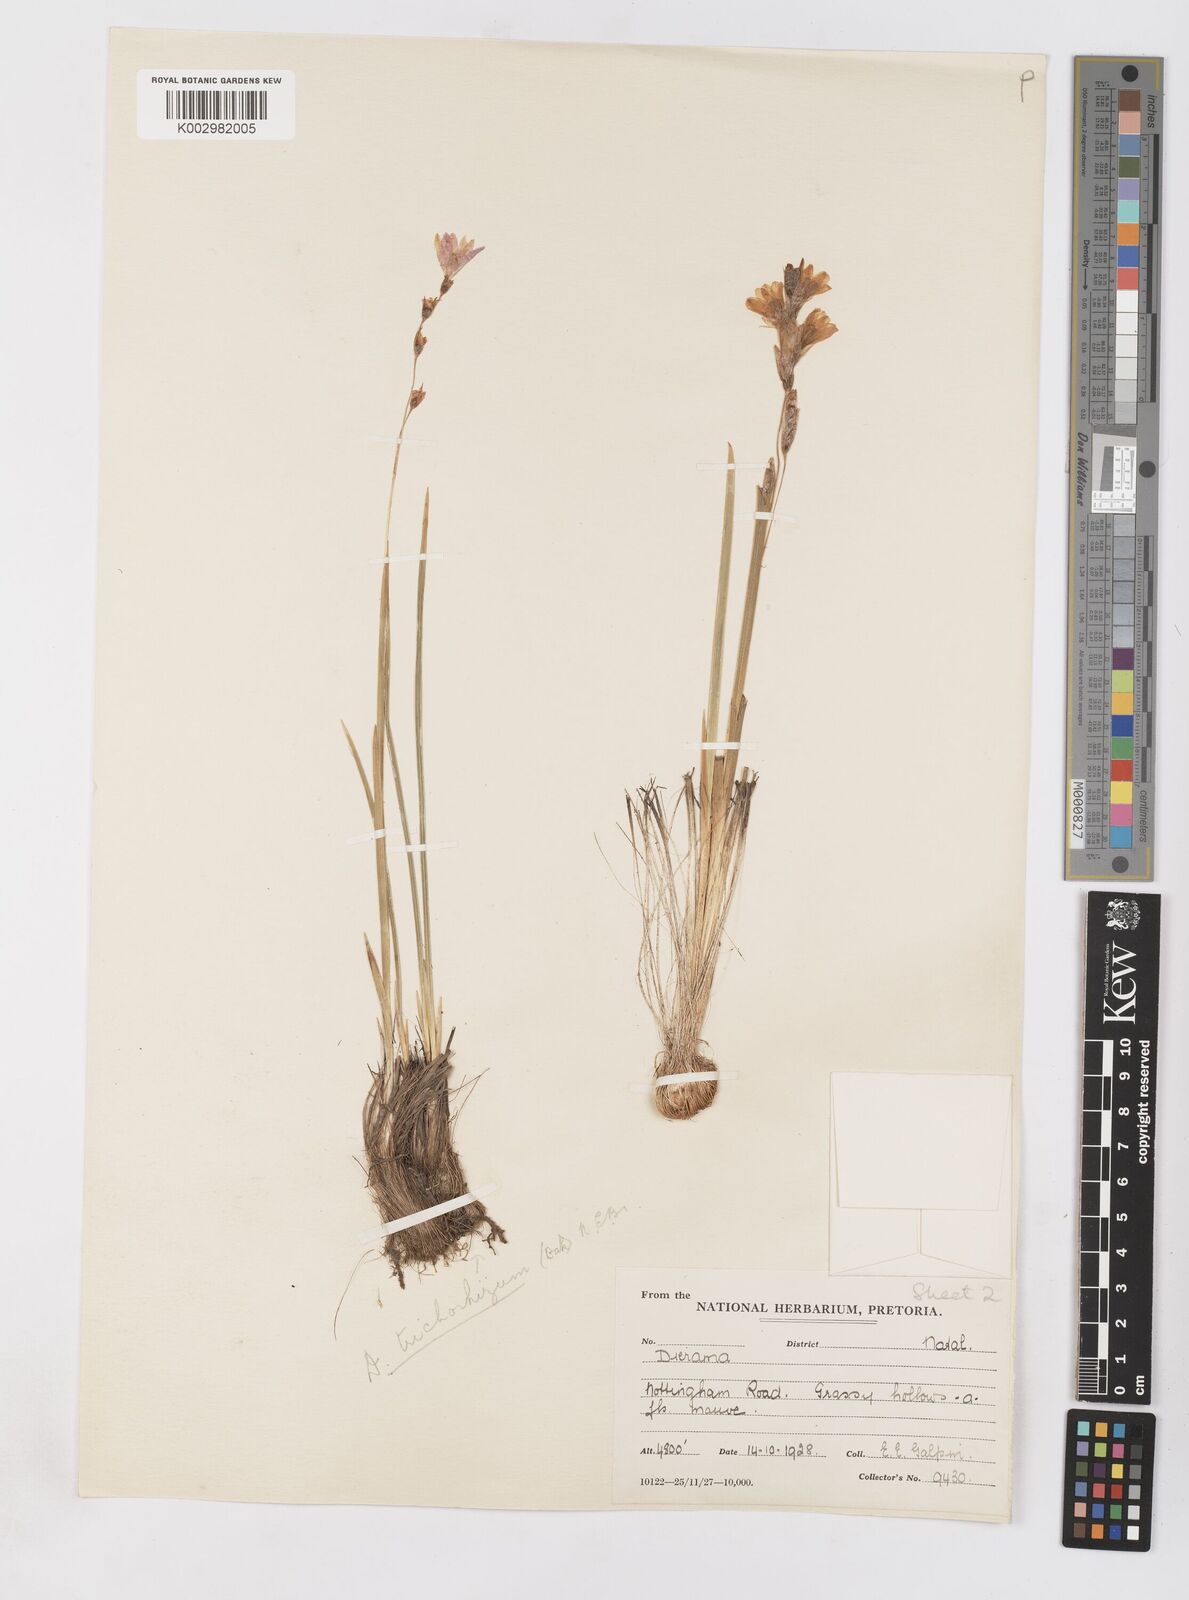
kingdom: Plantae
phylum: Tracheophyta
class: Liliopsida
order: Asparagales
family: Iridaceae
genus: Dierama
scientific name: Dierama trichorhizum
